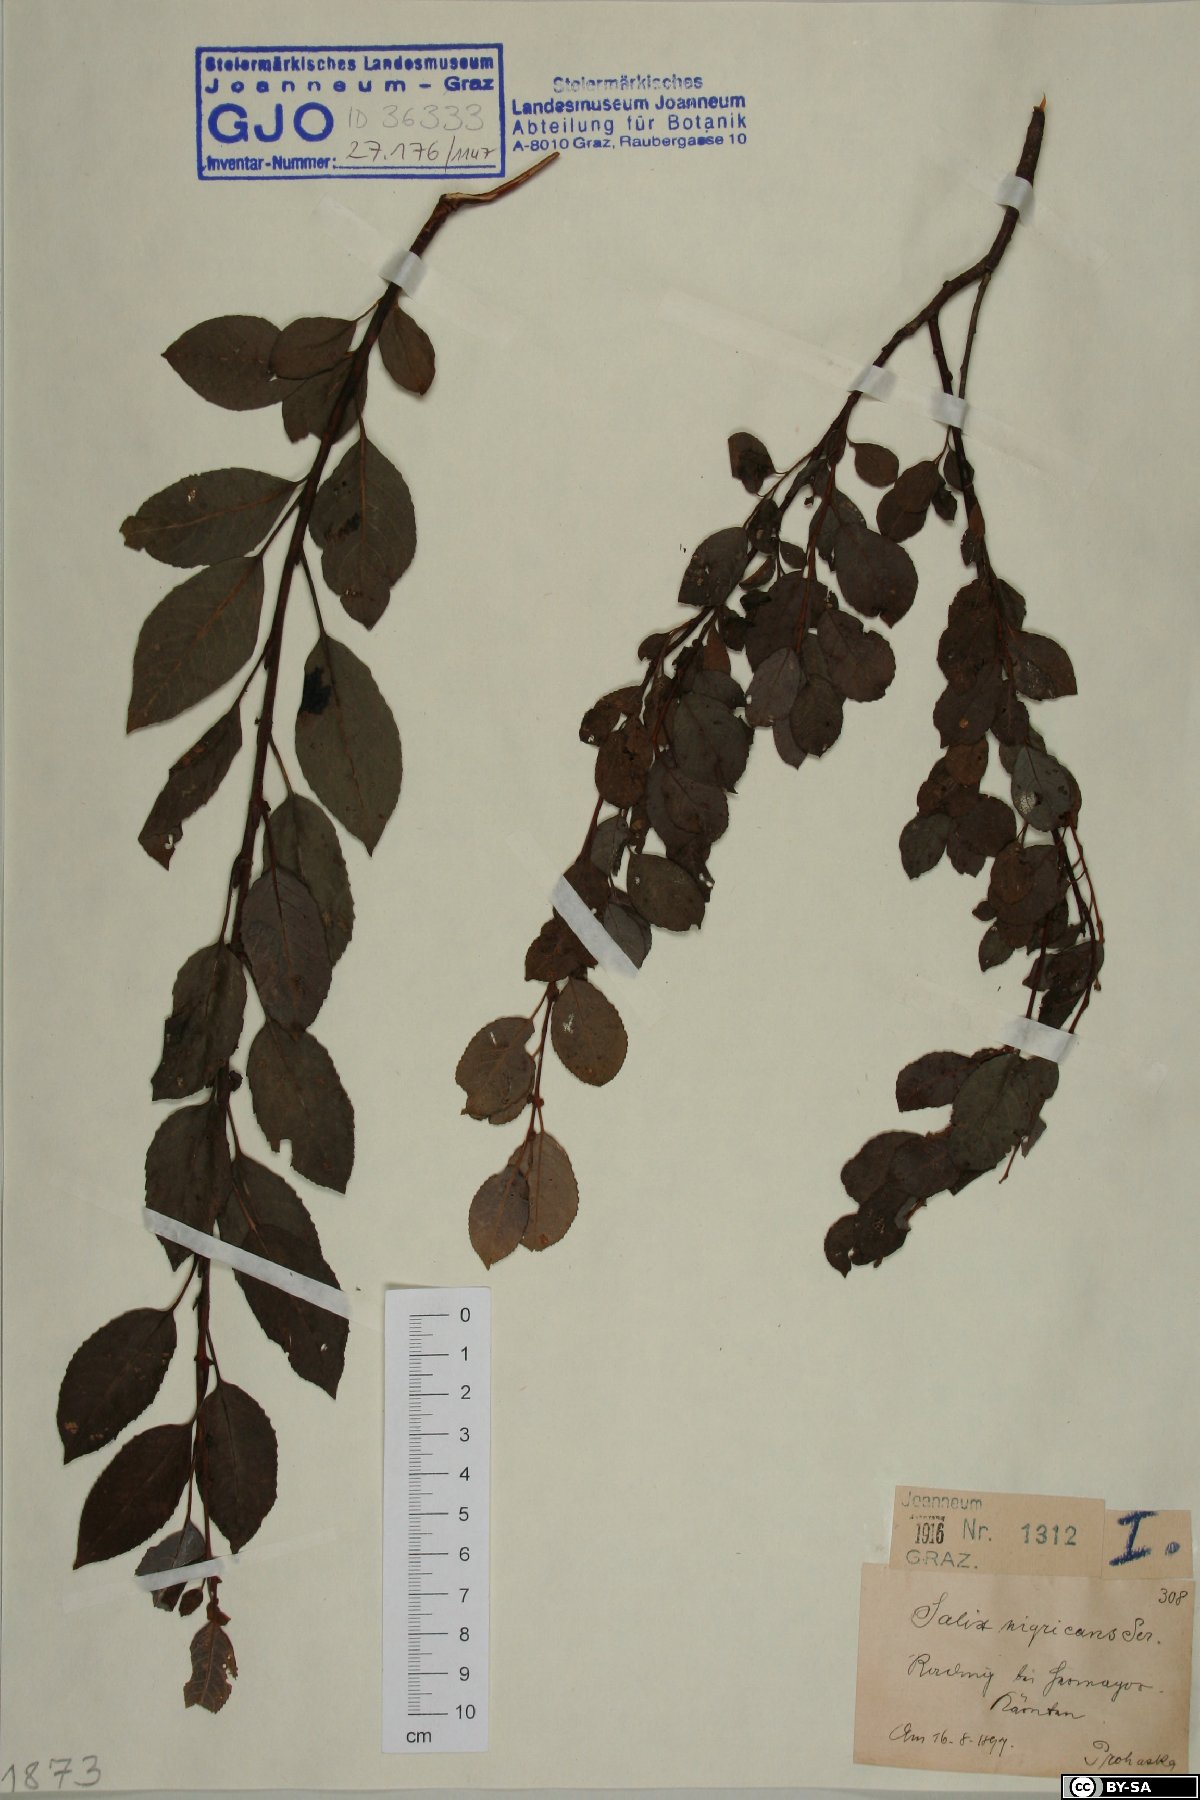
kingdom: Plantae
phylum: Tracheophyta
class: Magnoliopsida
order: Malpighiales
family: Salicaceae
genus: Salix
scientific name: Salix myrsinifolia
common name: Dark-leaved willow
